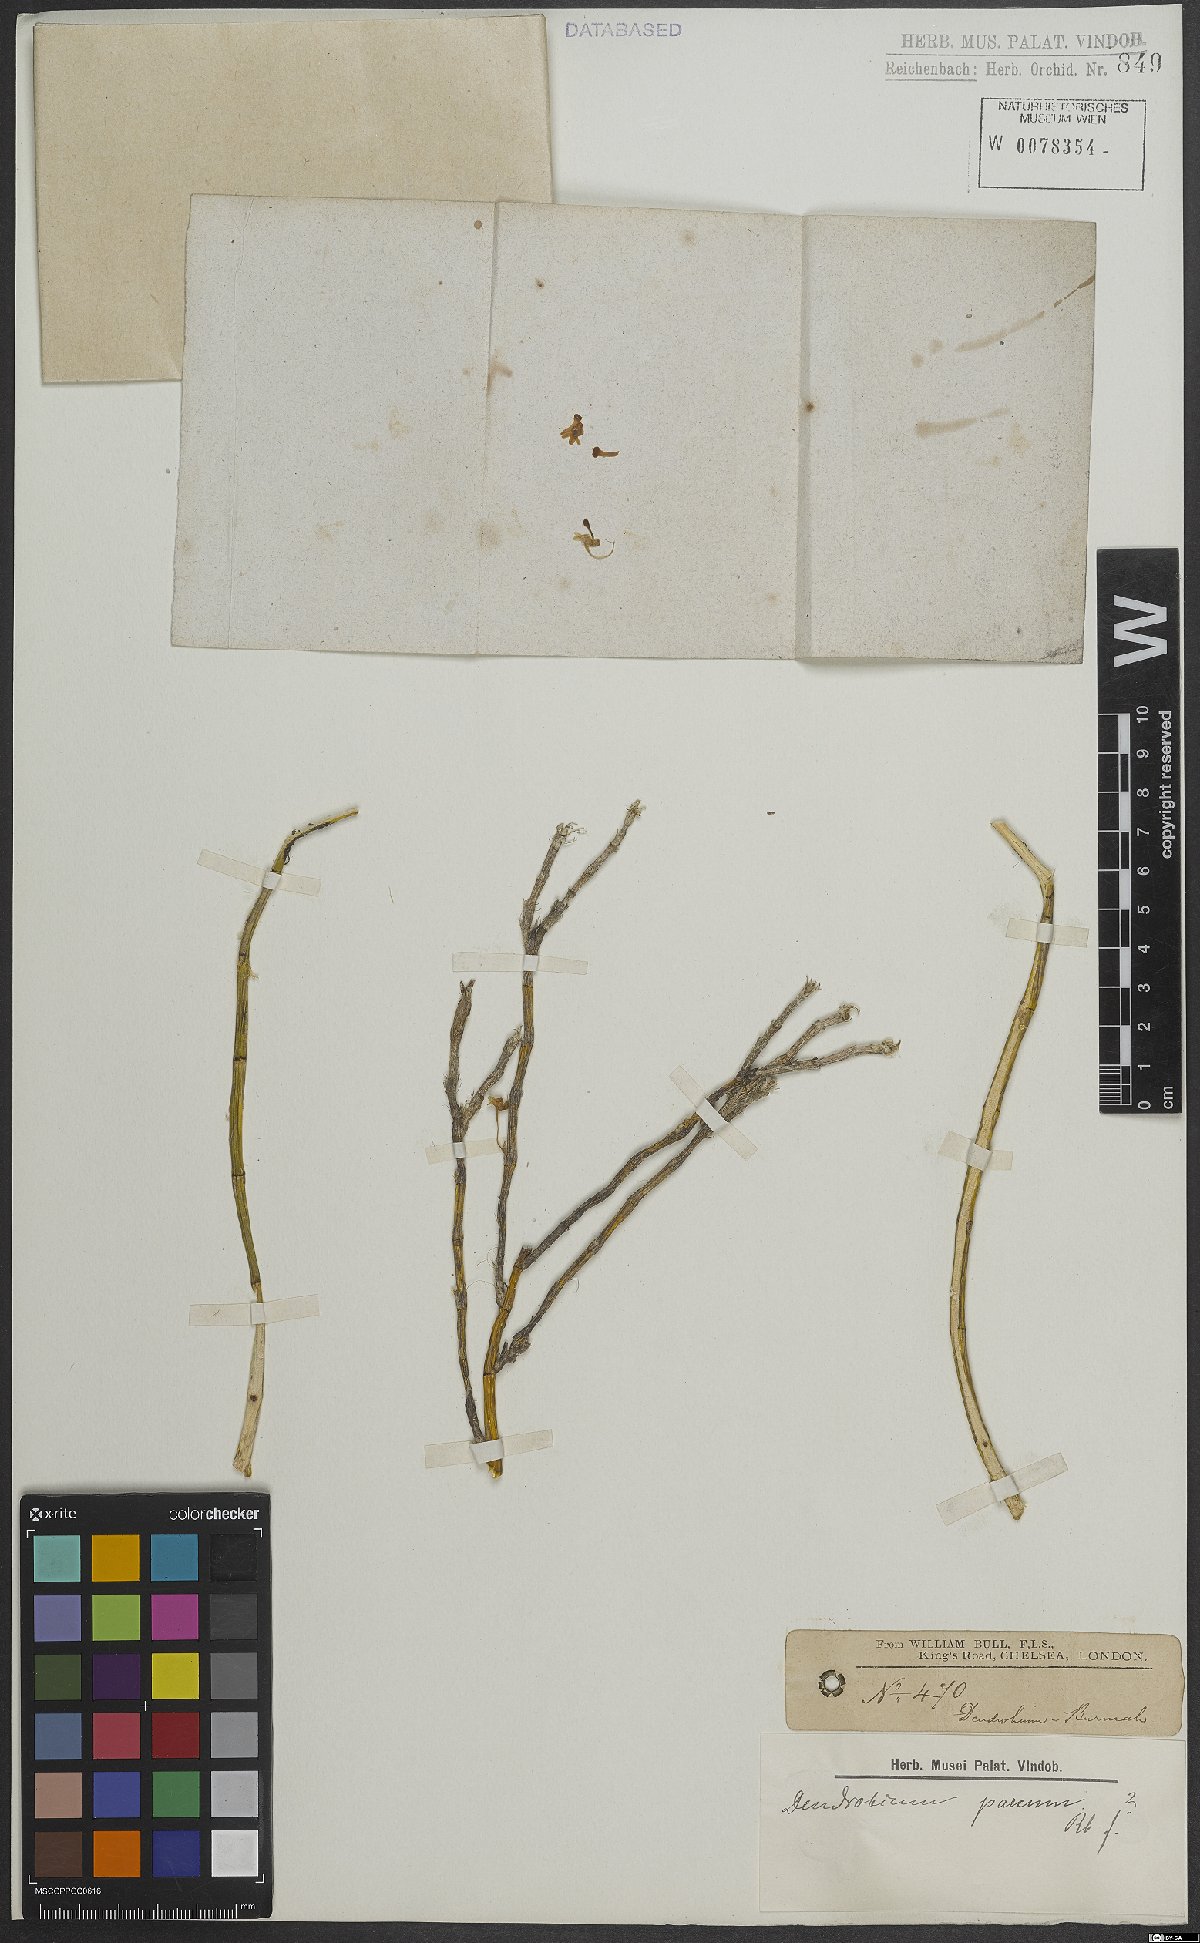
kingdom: Plantae
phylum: Tracheophyta
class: Liliopsida
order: Asparagales
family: Orchidaceae
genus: Dendrobium
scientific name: Dendrobium parcum
